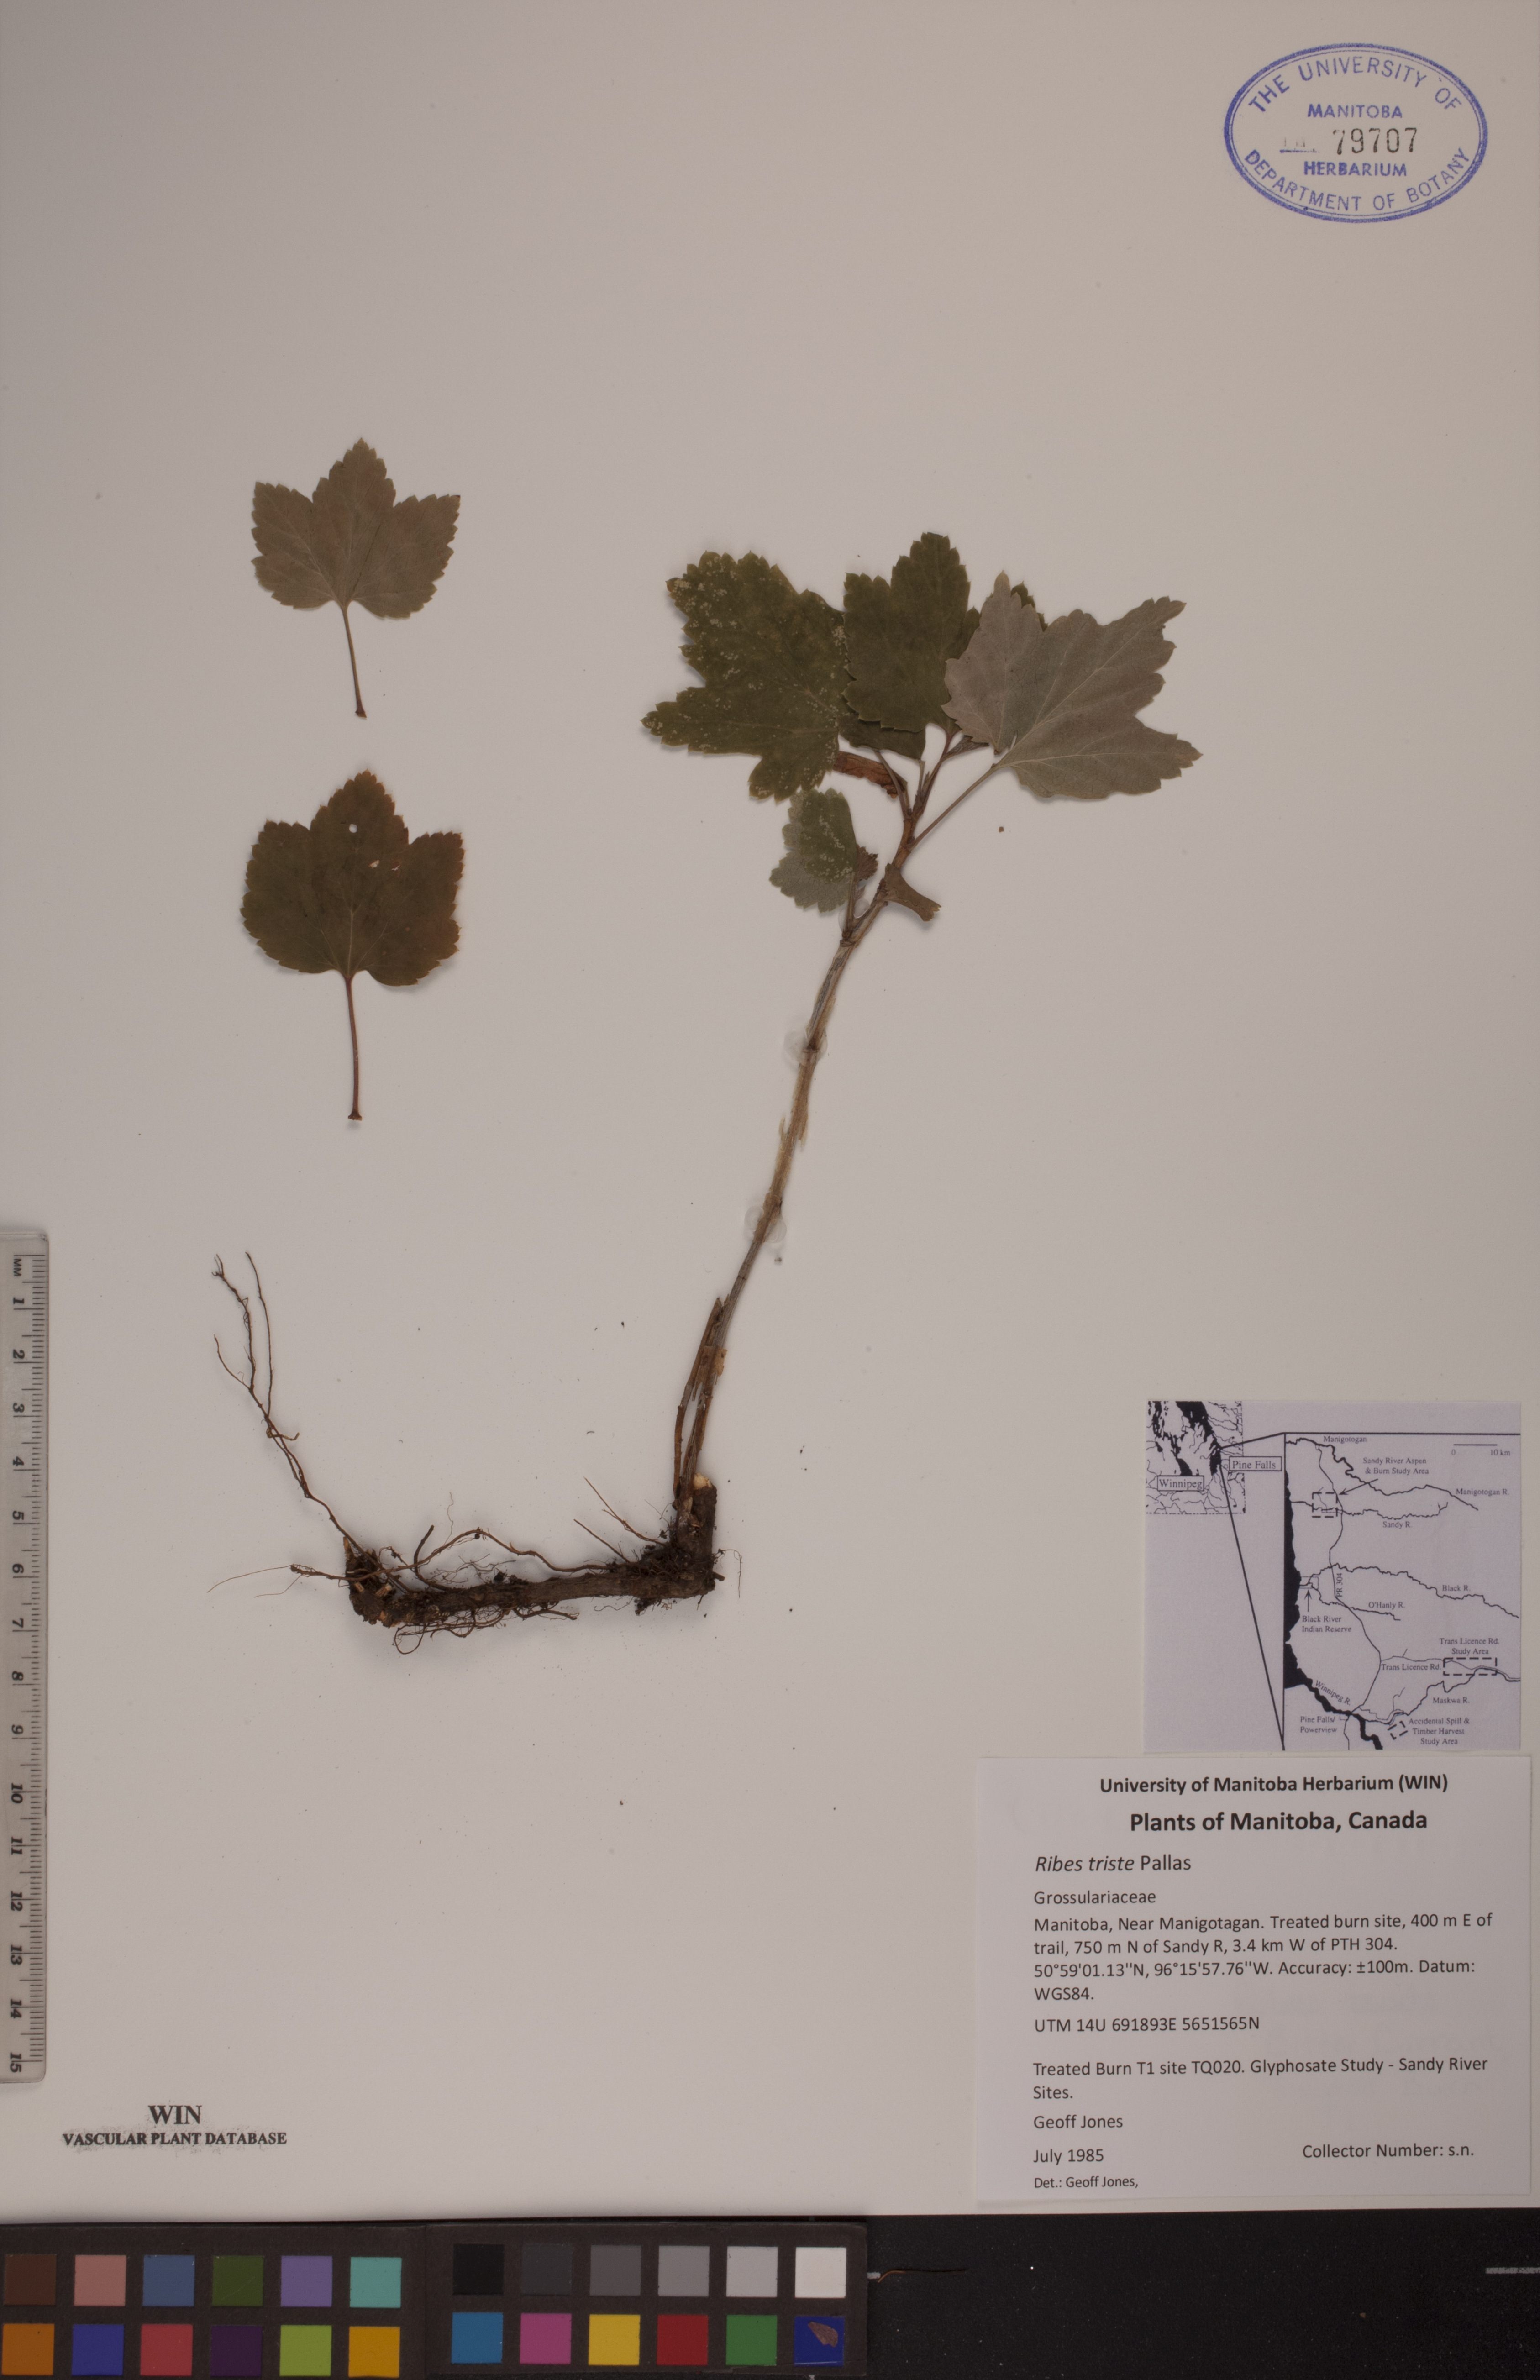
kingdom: Plantae
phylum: Tracheophyta
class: Magnoliopsida
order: Saxifragales
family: Grossulariaceae
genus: Ribes
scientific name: Ribes triste
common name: Swamp red currant
